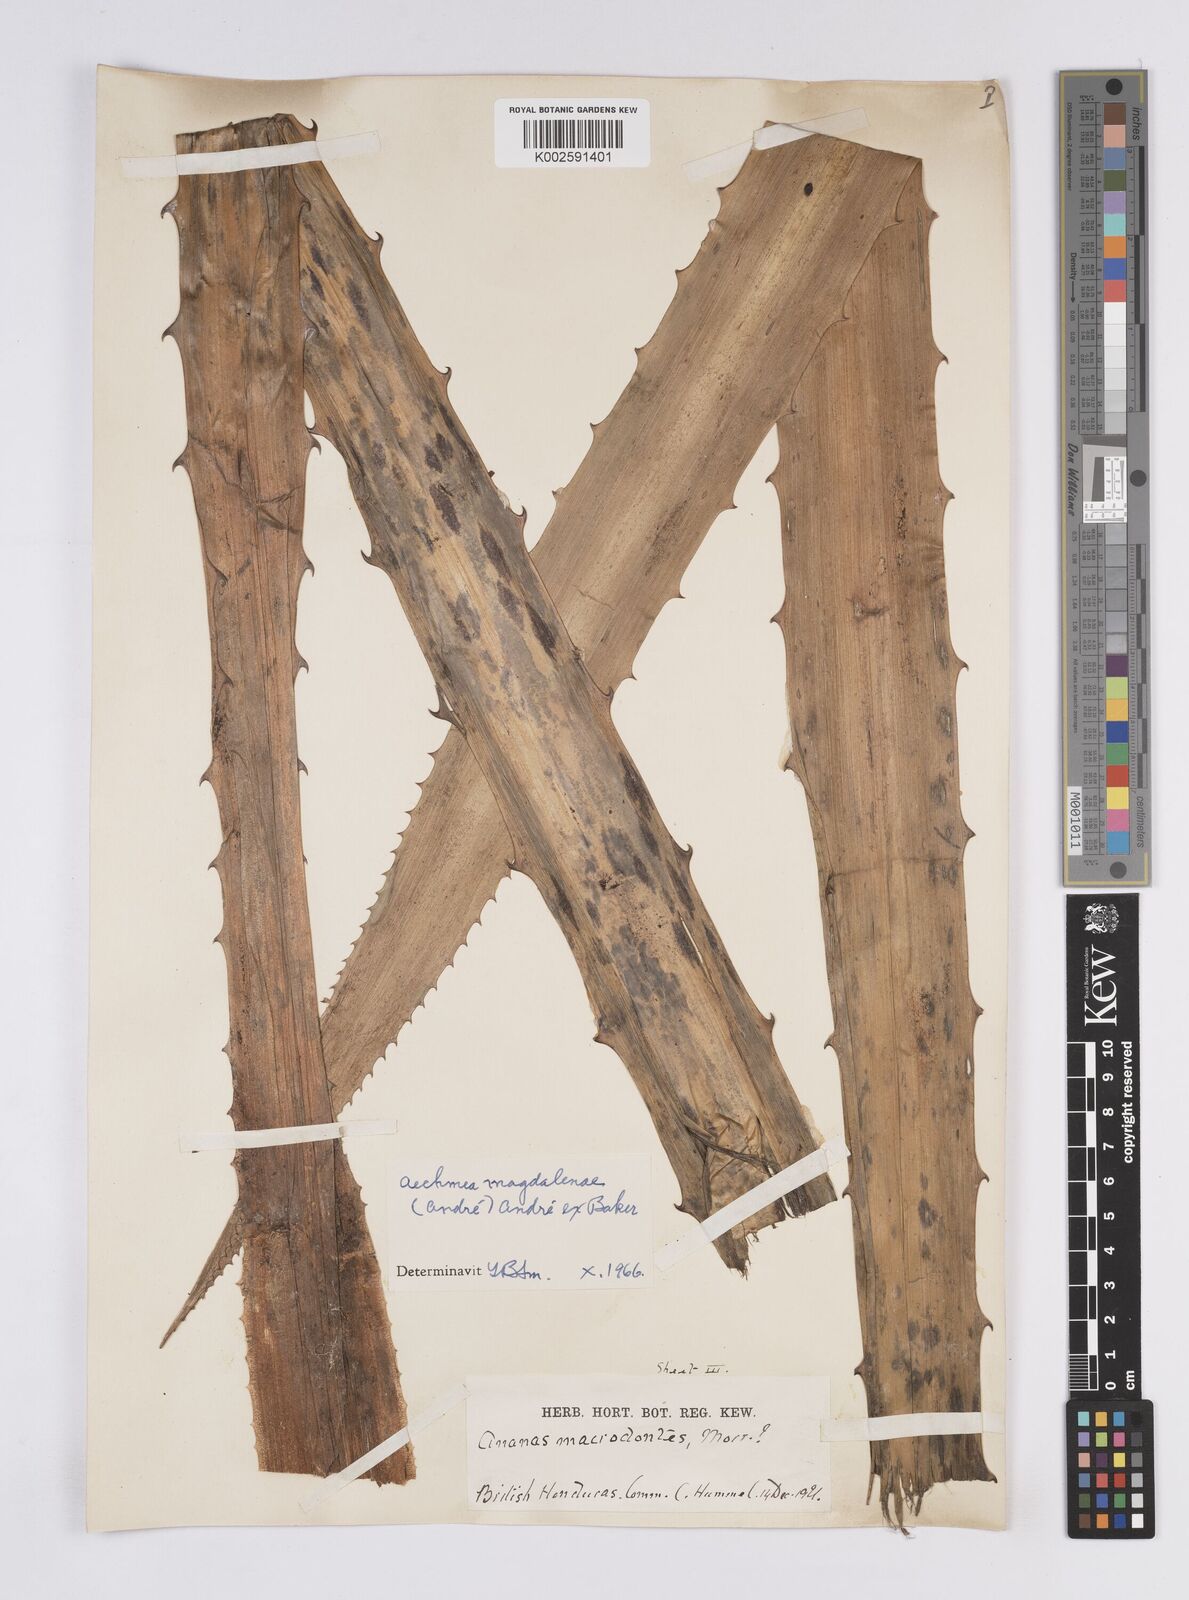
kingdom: Plantae
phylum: Tracheophyta
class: Liliopsida
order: Poales
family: Bromeliaceae
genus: Aechmea
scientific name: Aechmea magdalenae
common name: Arghan
